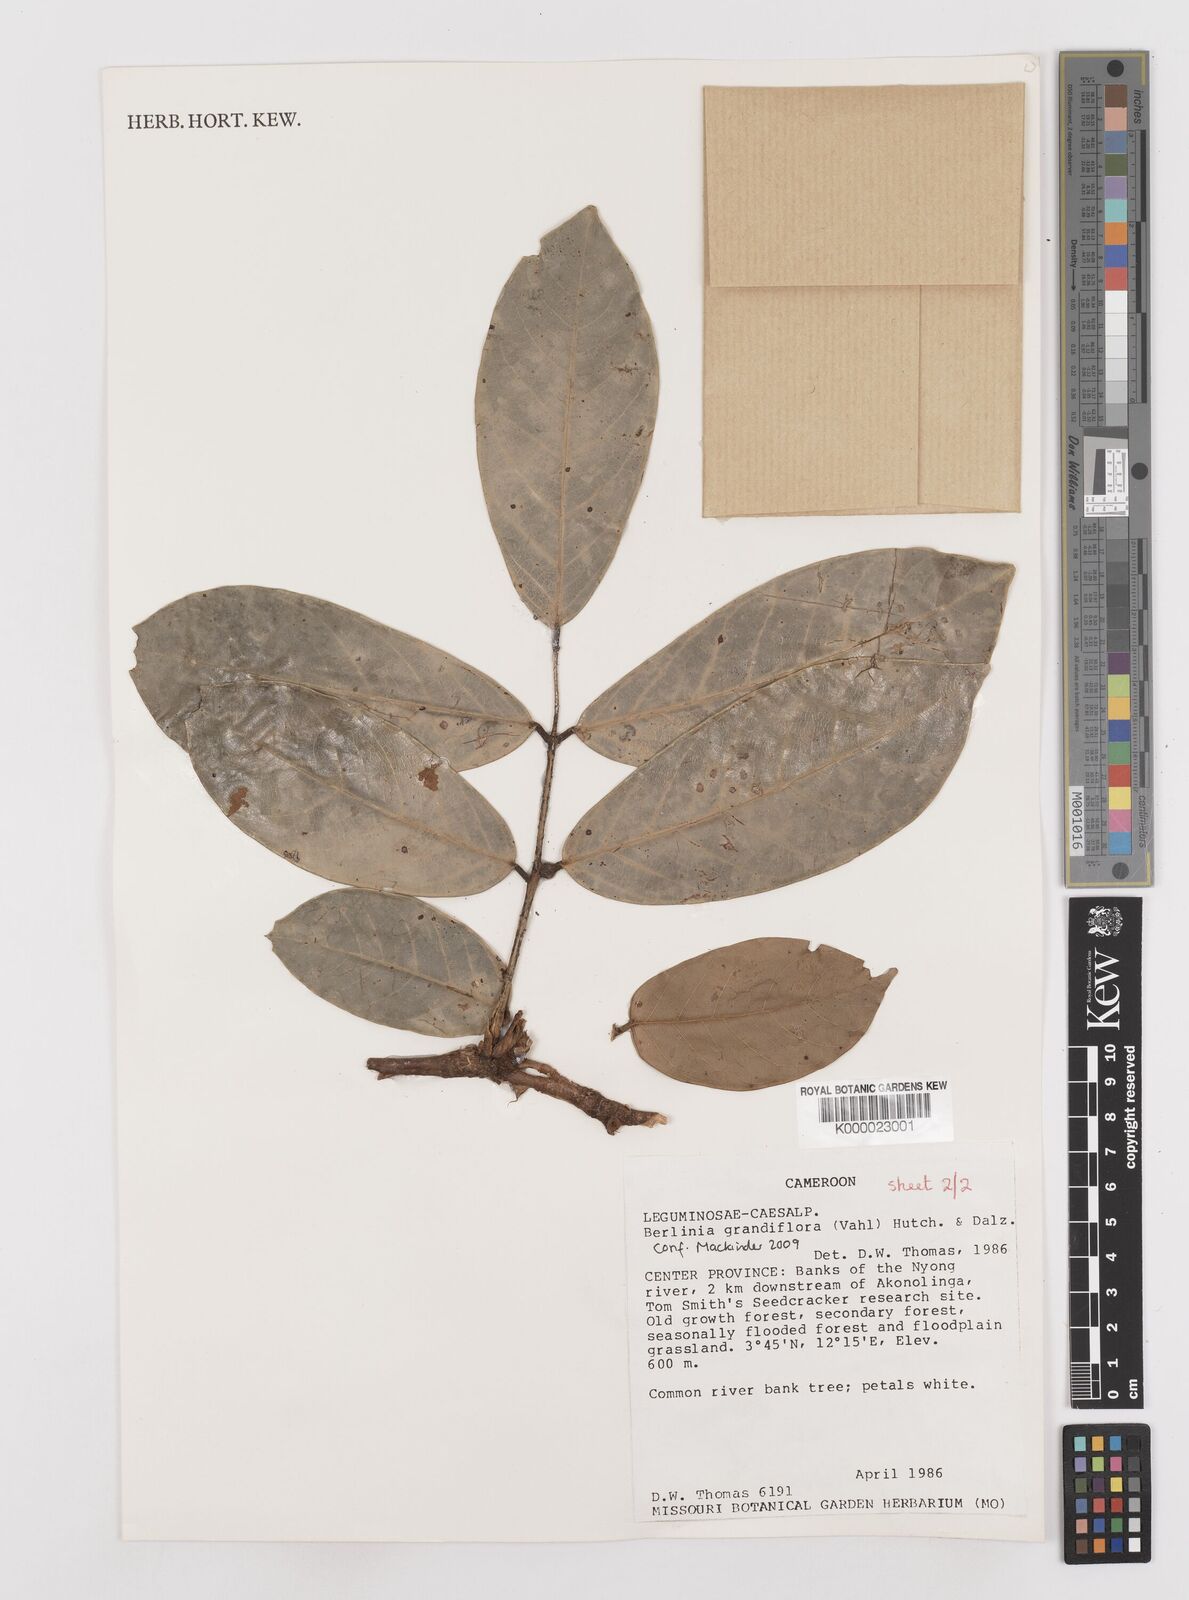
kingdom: Plantae
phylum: Tracheophyta
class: Magnoliopsida
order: Fabales
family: Fabaceae
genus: Berlinia
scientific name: Berlinia grandiflora
